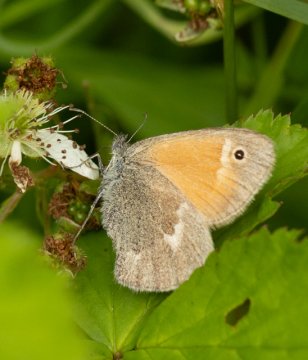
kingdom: Animalia
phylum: Arthropoda
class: Insecta
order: Lepidoptera
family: Nymphalidae
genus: Coenonympha
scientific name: Coenonympha tullia
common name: Large Heath
